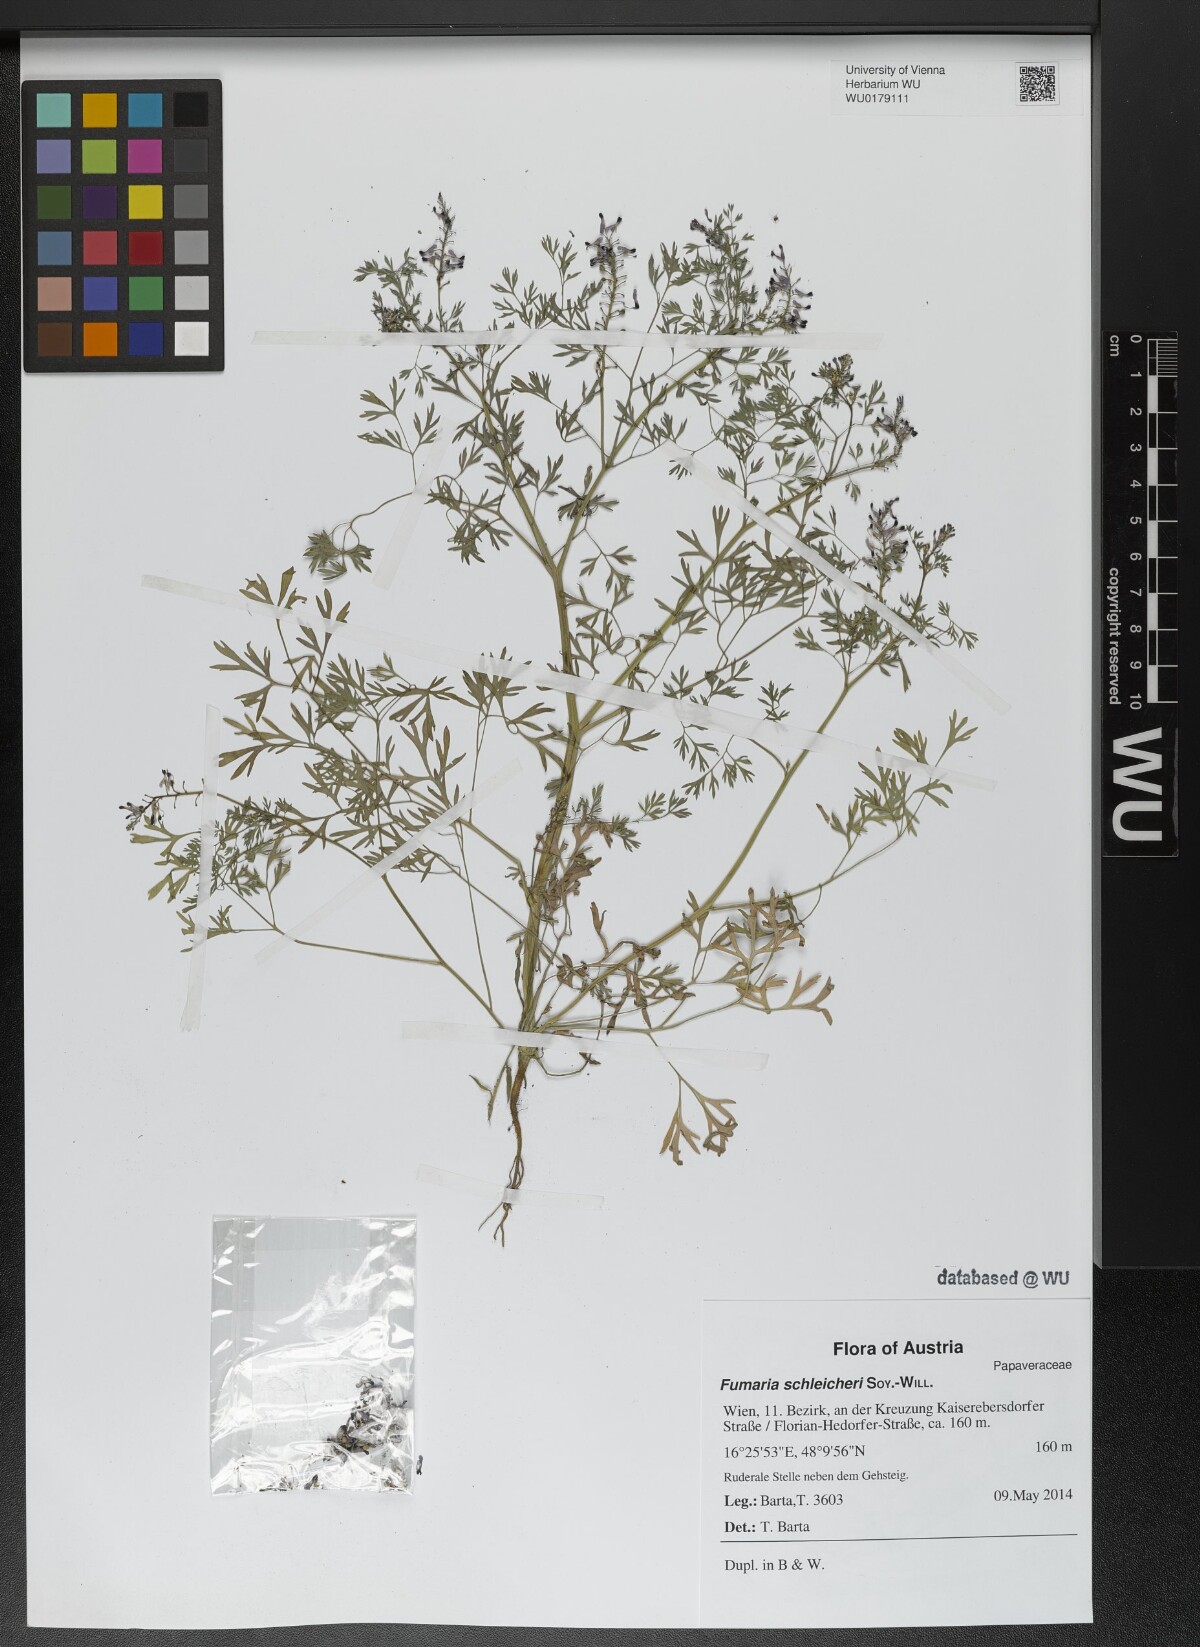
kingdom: Plantae
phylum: Tracheophyta
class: Magnoliopsida
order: Ranunculales
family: Papaveraceae
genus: Fumaria
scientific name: Fumaria schleicheri
